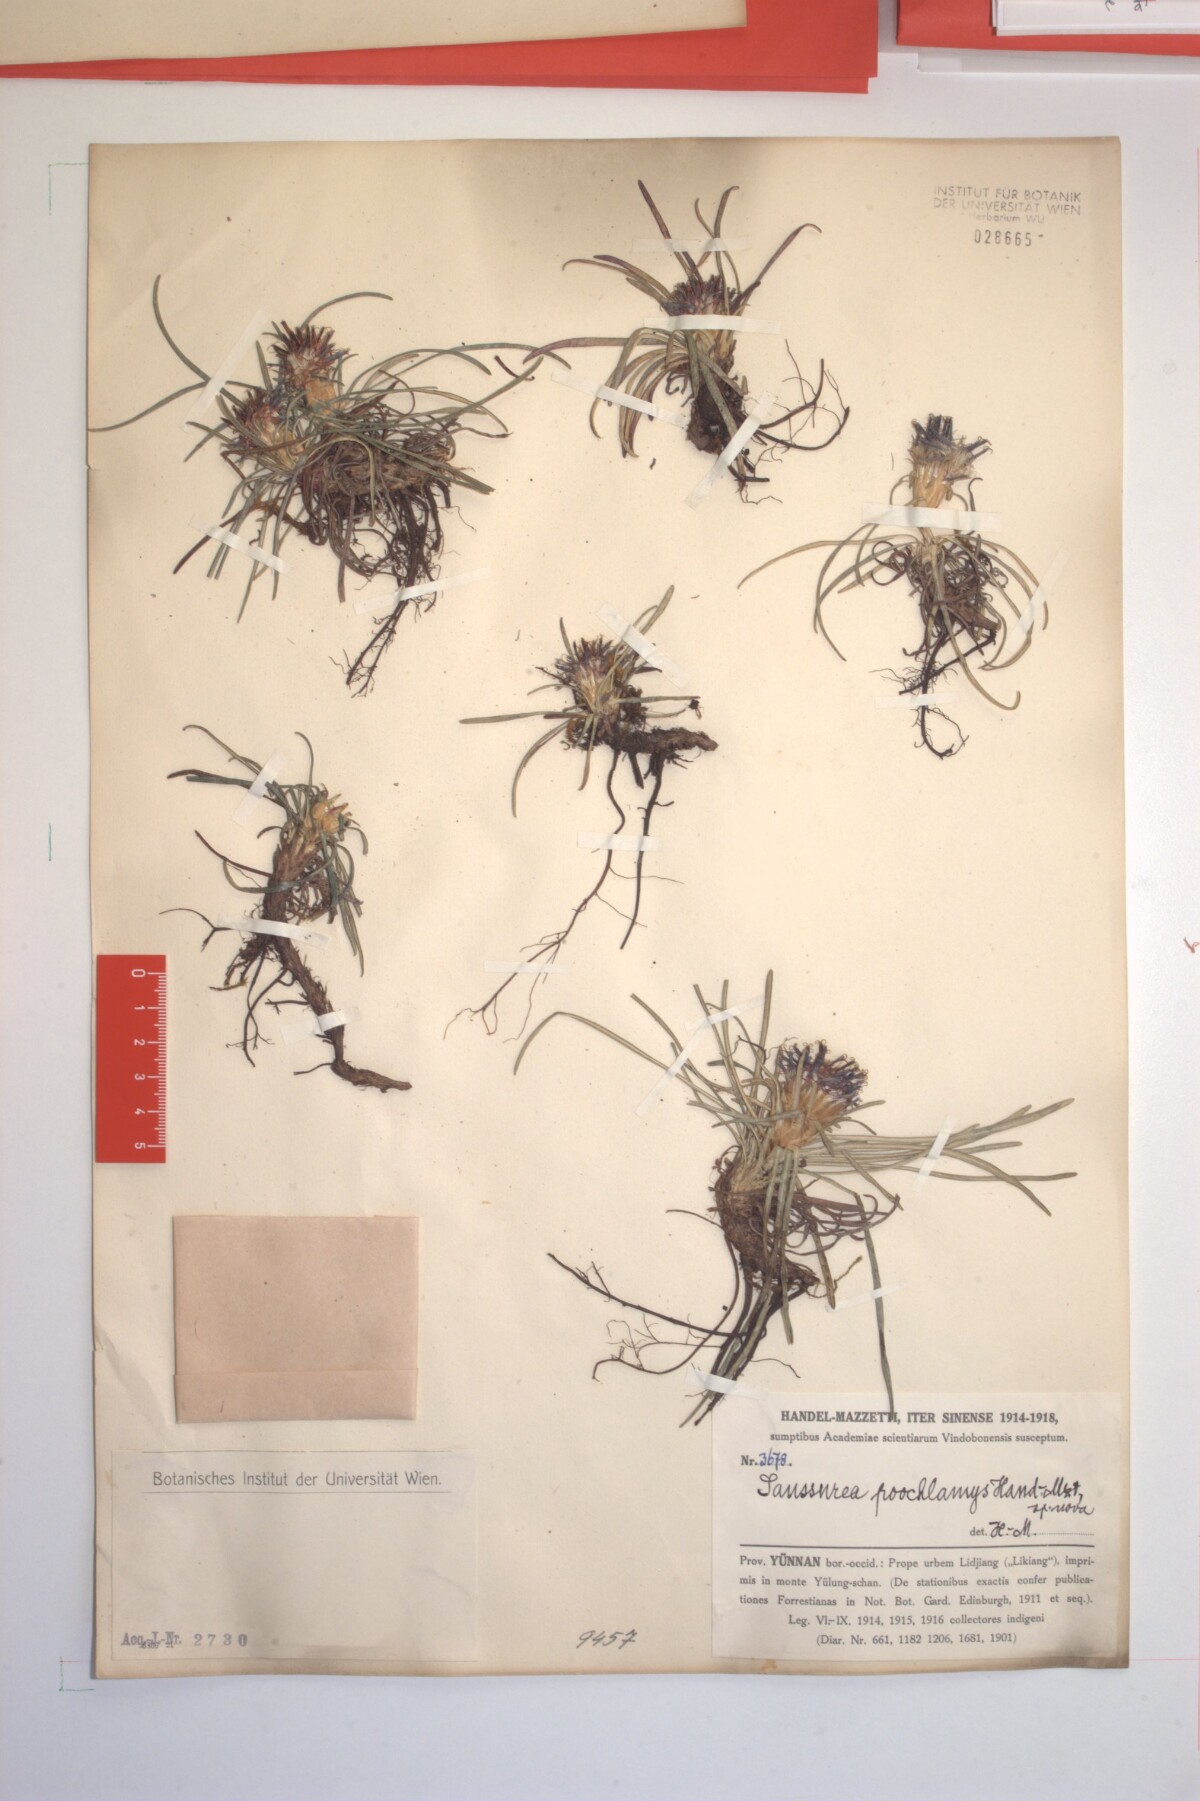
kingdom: Plantae
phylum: Tracheophyta
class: Magnoliopsida
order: Asterales
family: Asteraceae
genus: Saussurea
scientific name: Saussurea poochlamys
